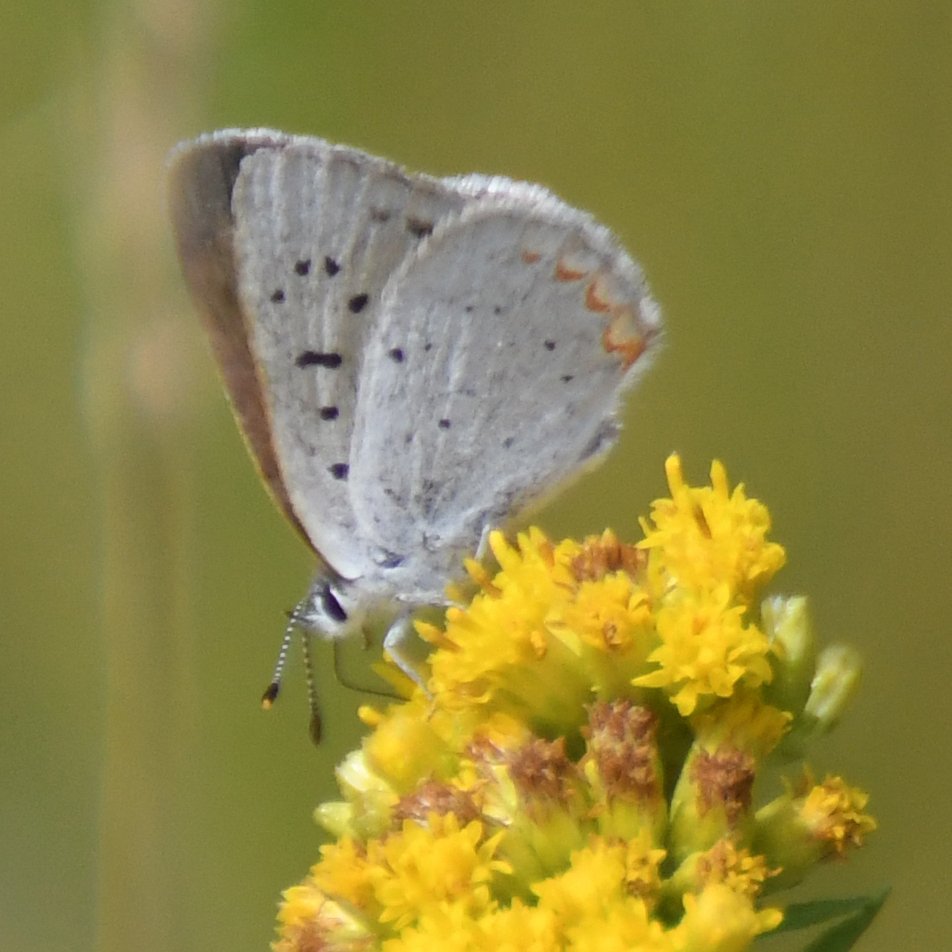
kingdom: Animalia
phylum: Arthropoda
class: Insecta
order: Lepidoptera
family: Sesiidae
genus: Sesia
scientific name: Sesia Lycaena epixanthe
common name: Bog Copper
